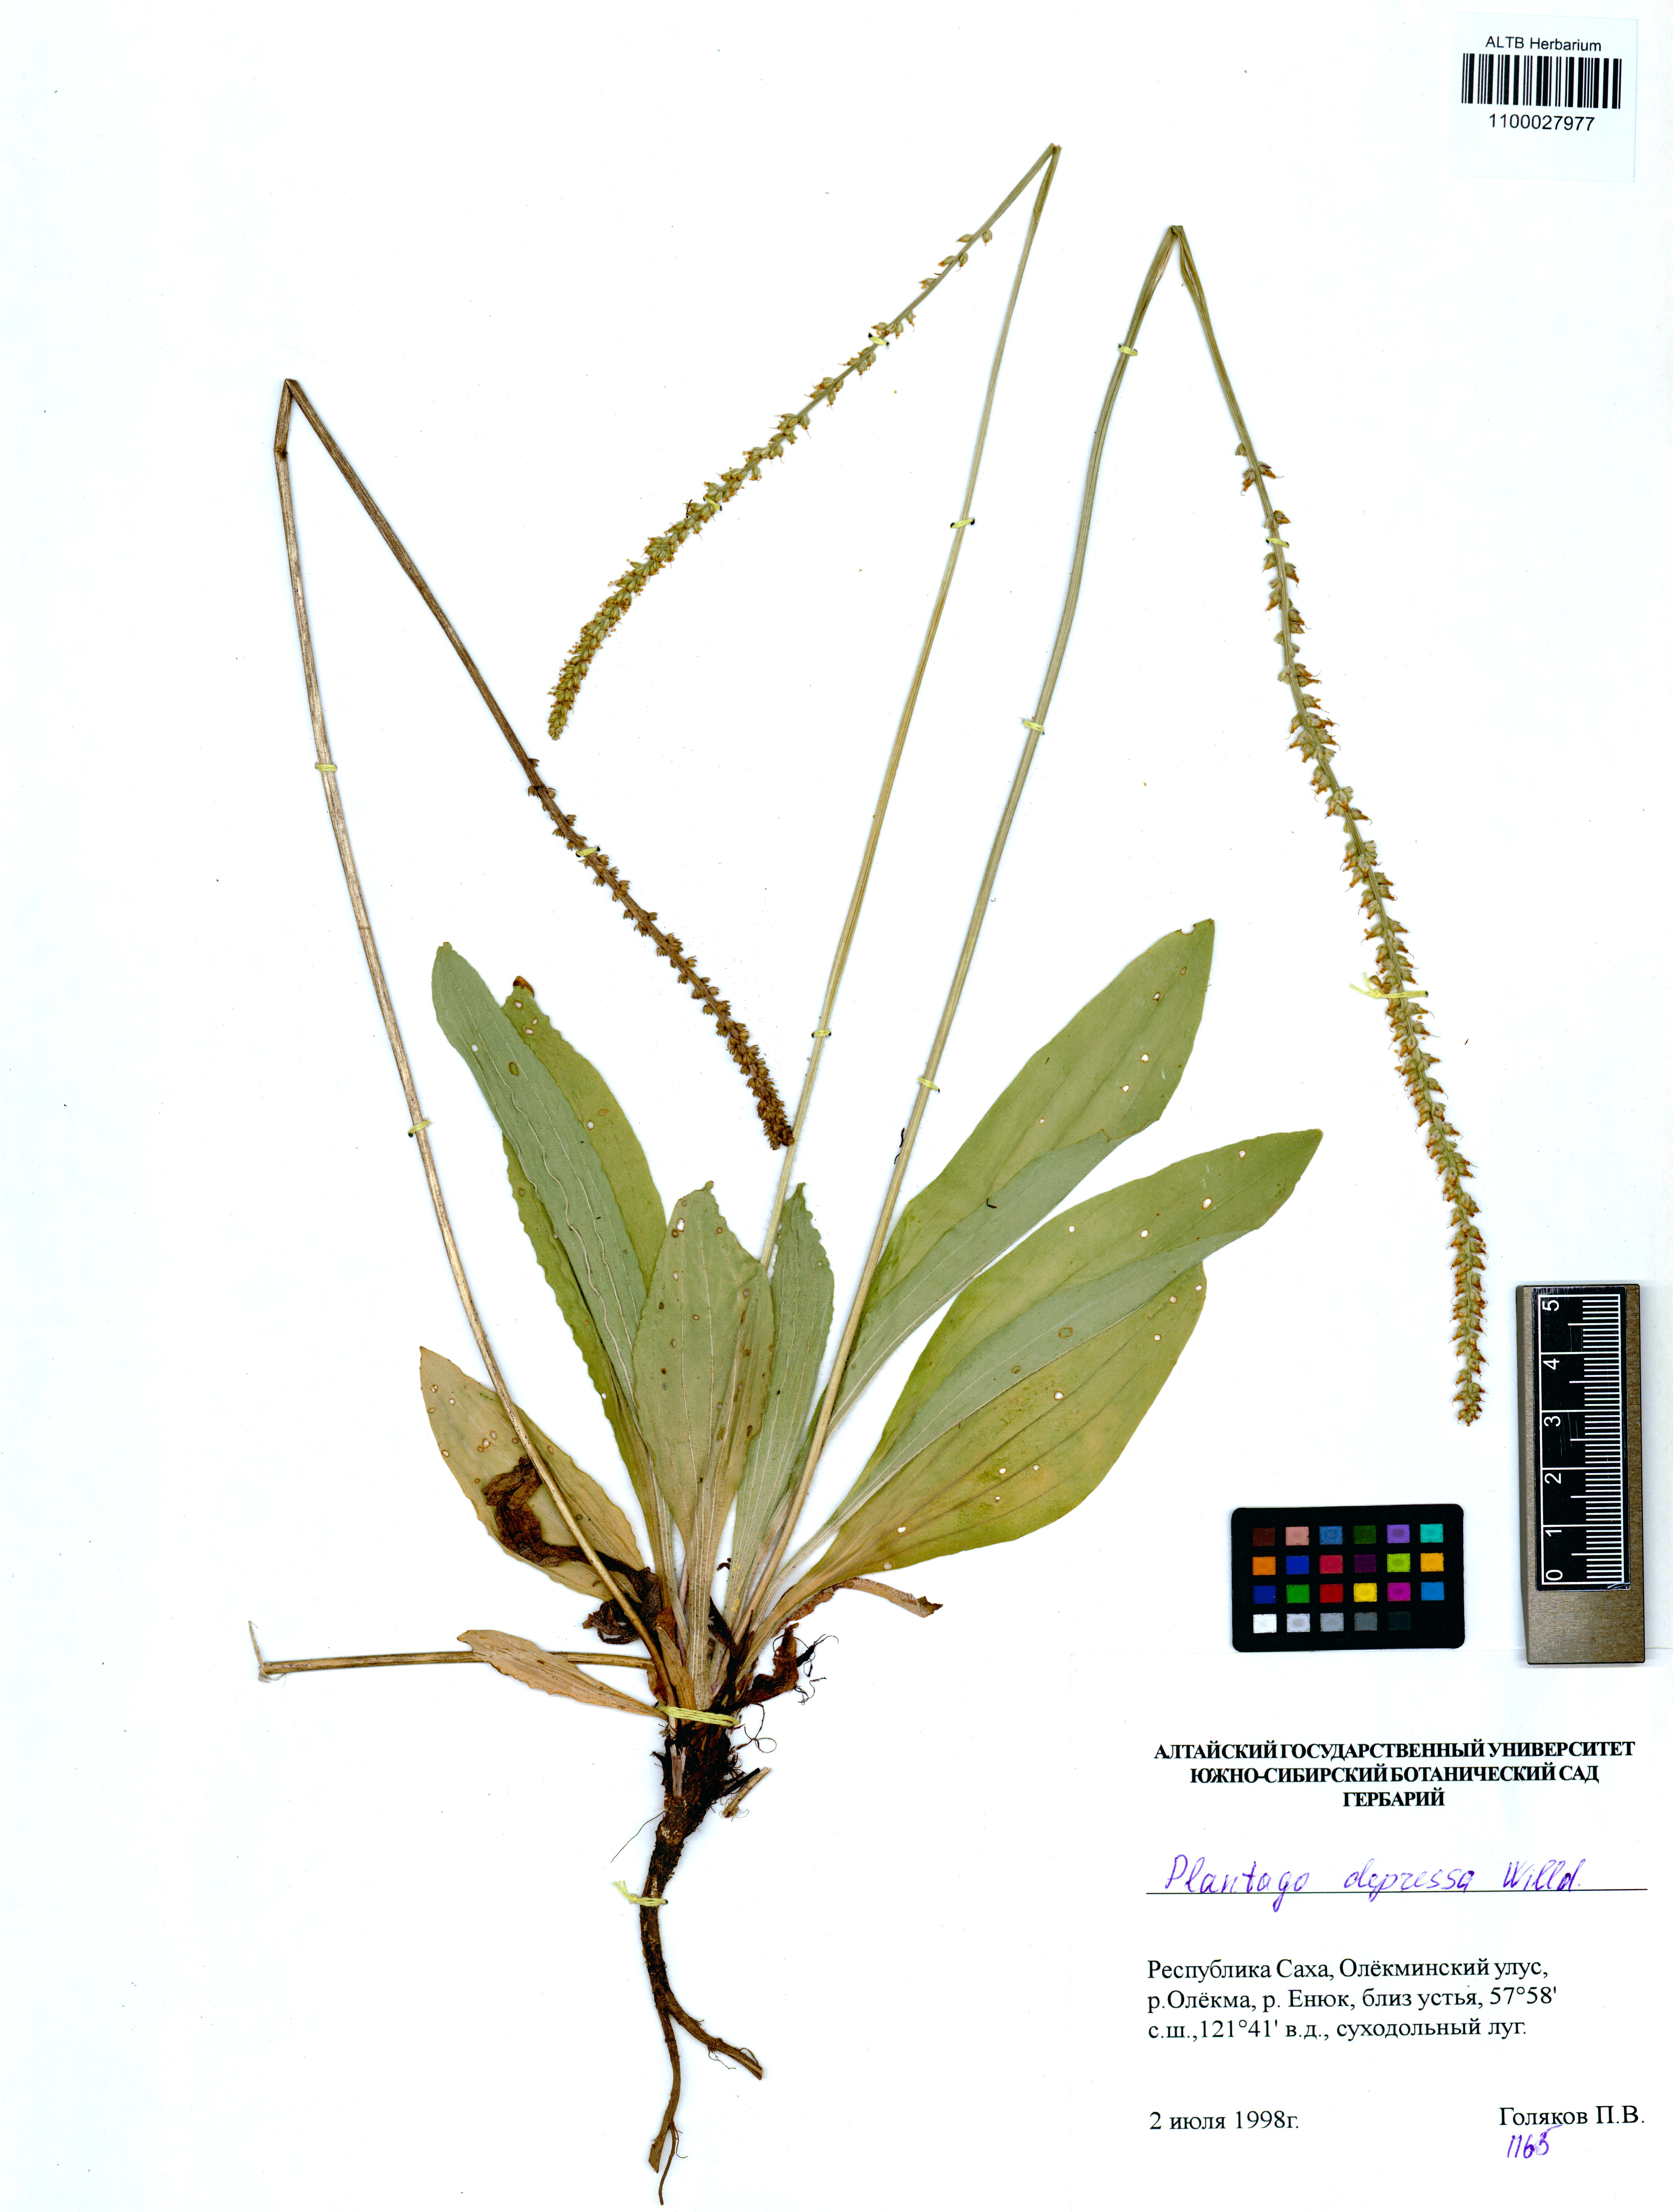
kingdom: Plantae
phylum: Tracheophyta
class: Magnoliopsida
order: Lamiales
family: Plantaginaceae
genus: Plantago
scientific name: Plantago depressa
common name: Depressed plantain
